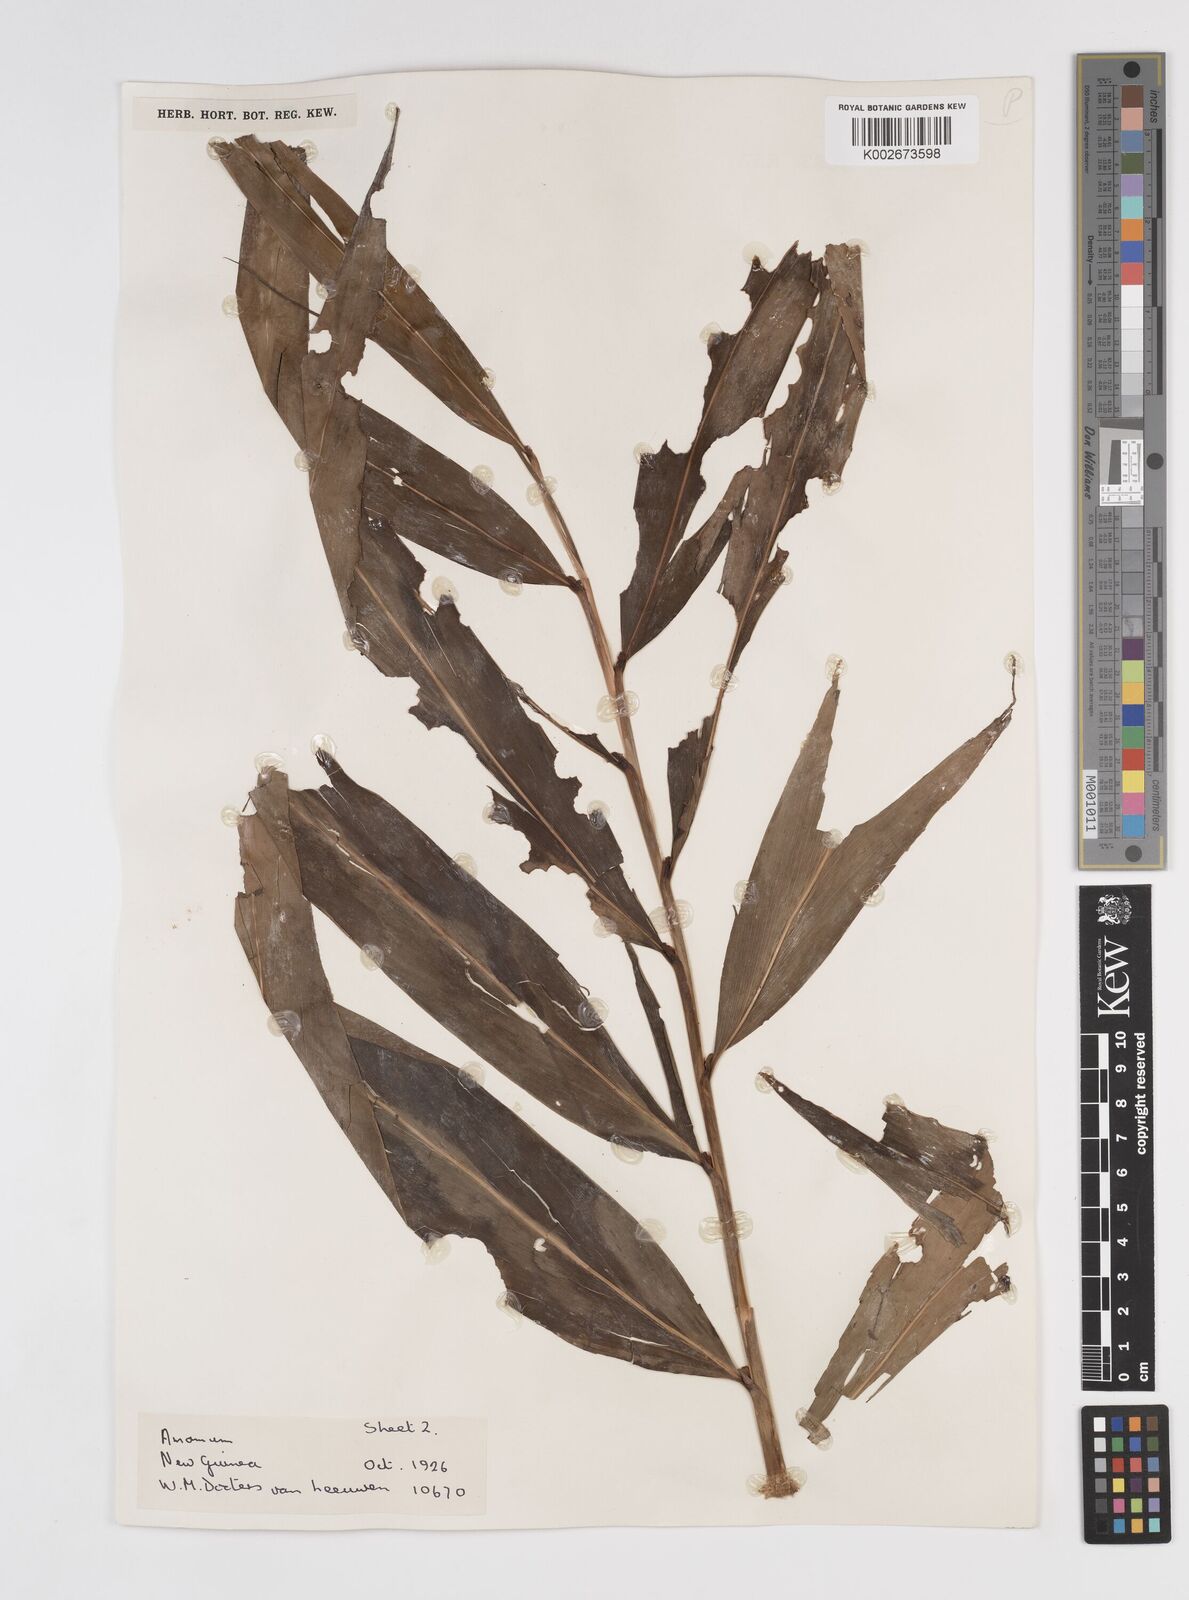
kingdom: Plantae
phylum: Tracheophyta
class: Liliopsida
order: Zingiberales
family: Zingiberaceae
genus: Amomum
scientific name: Amomum
